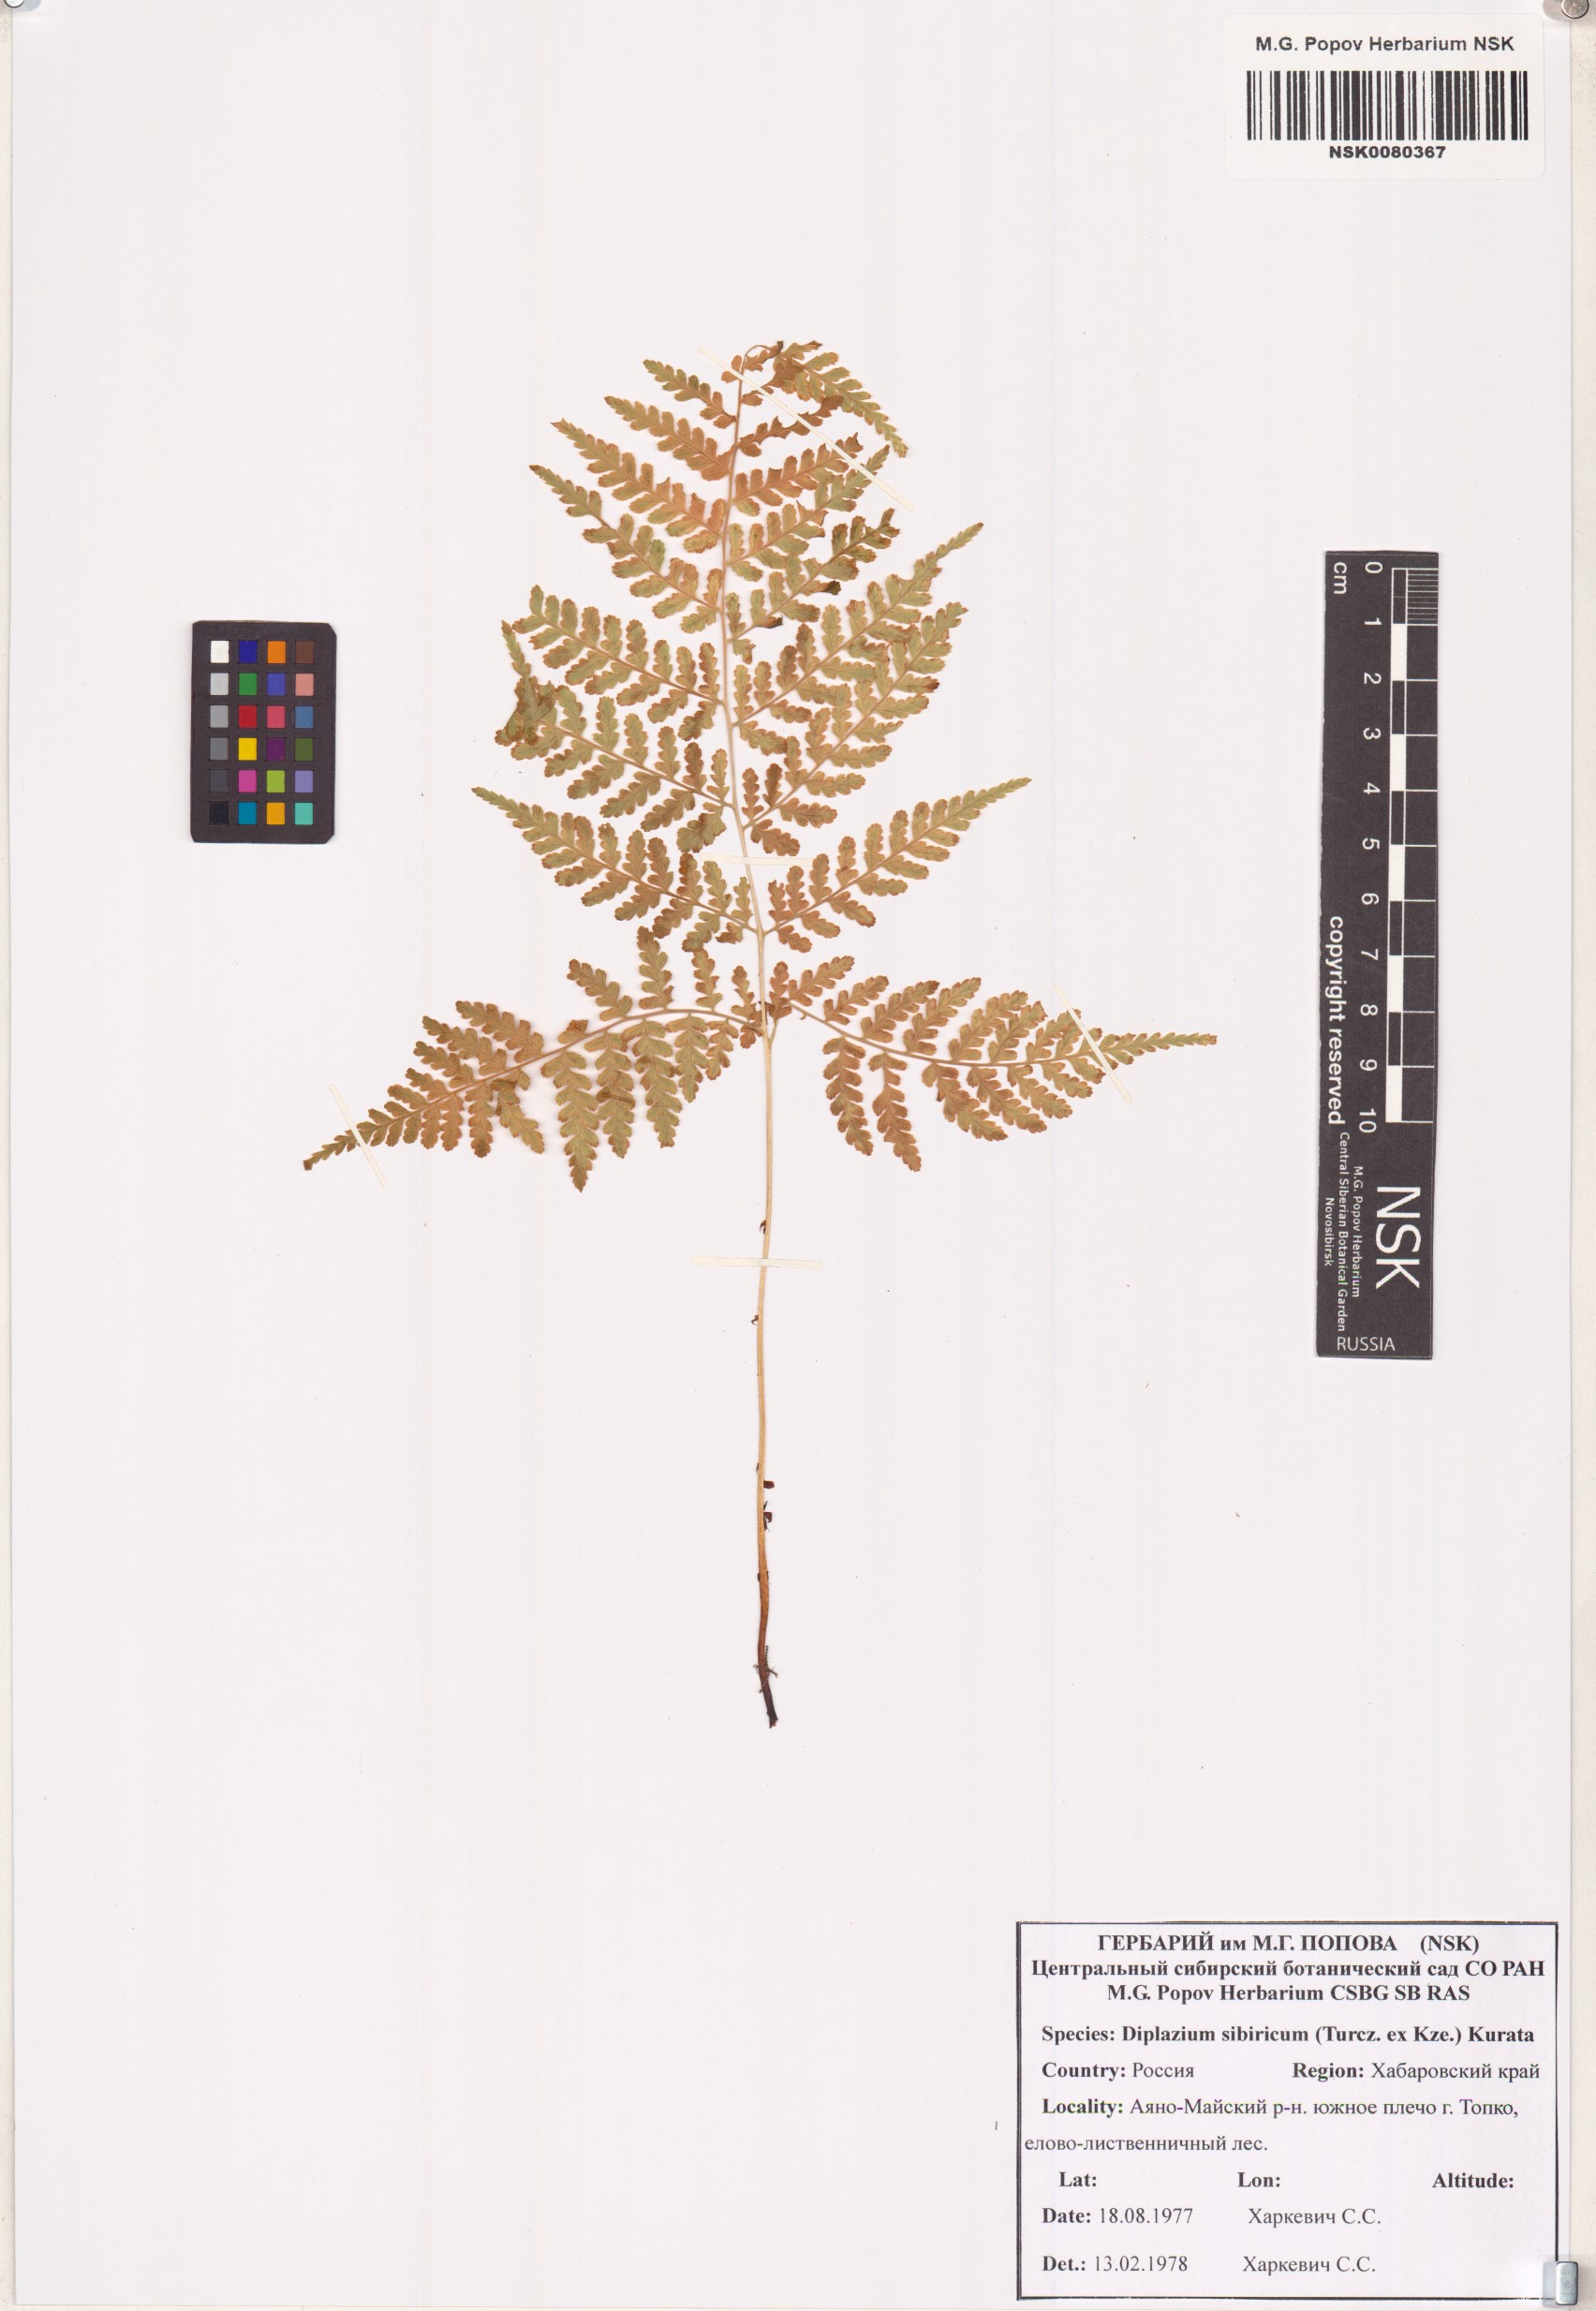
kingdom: Plantae
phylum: Tracheophyta
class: Polypodiopsida
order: Polypodiales
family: Athyriaceae
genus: Diplazium
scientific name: Diplazium sibiricum
